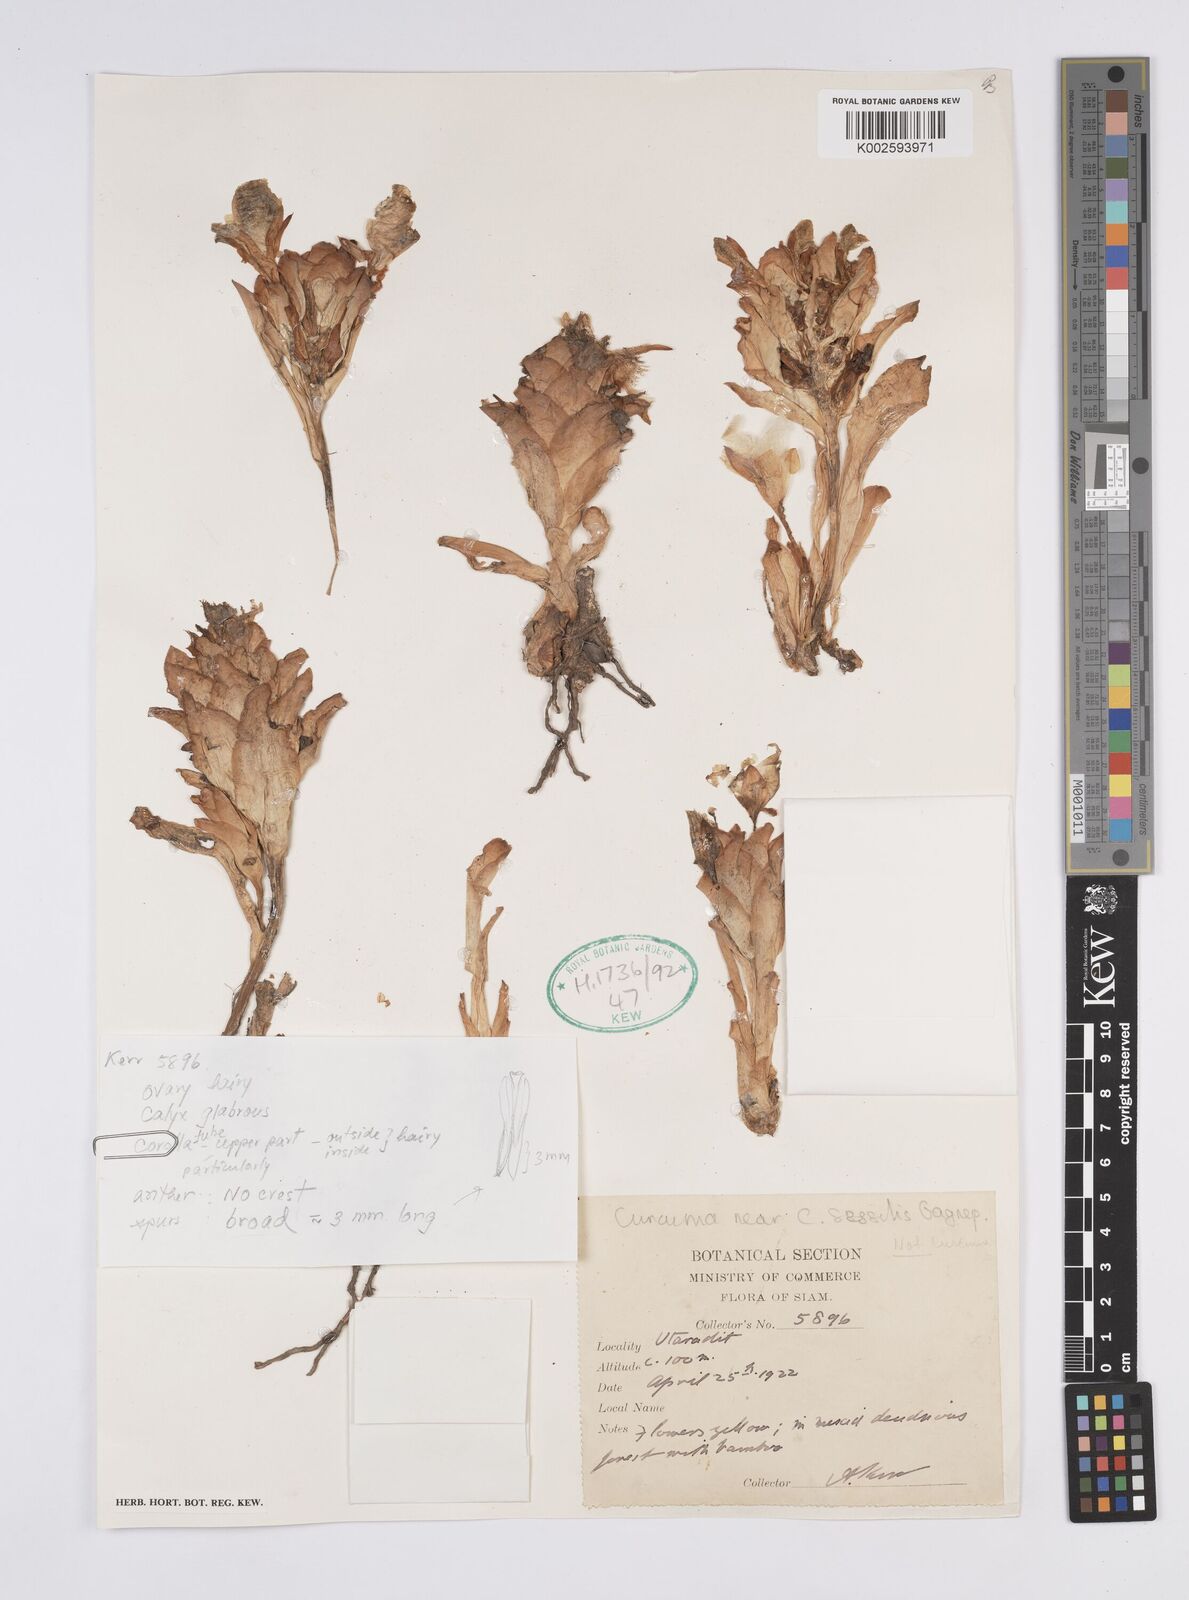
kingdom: Plantae
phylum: Tracheophyta
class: Liliopsida
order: Zingiberales
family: Zingiberaceae
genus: Curcuma
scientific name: Curcuma
